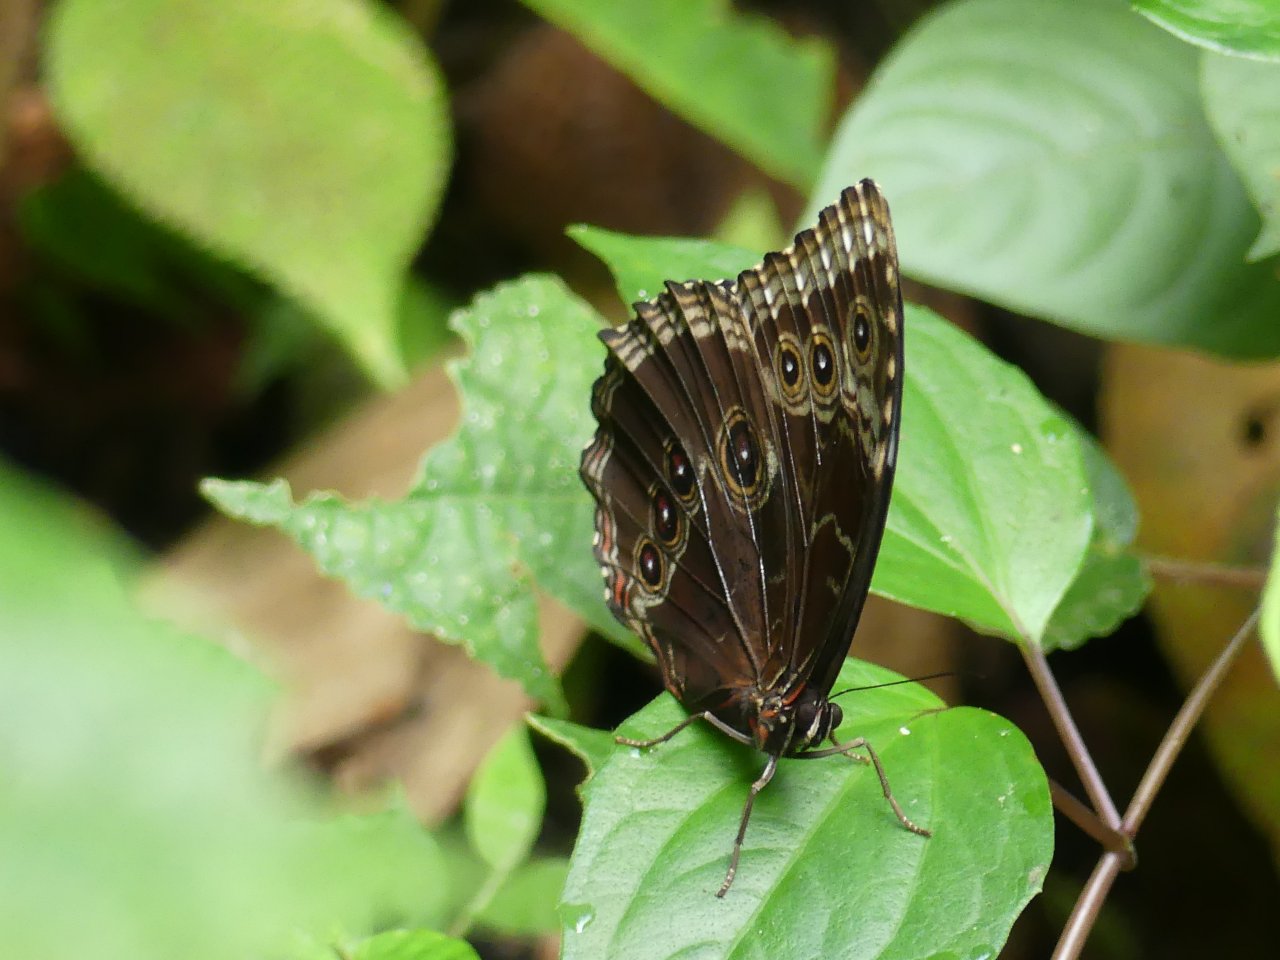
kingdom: Animalia
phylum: Arthropoda
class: Insecta
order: Lepidoptera
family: Nymphalidae
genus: Morpho
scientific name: Morpho helenor
